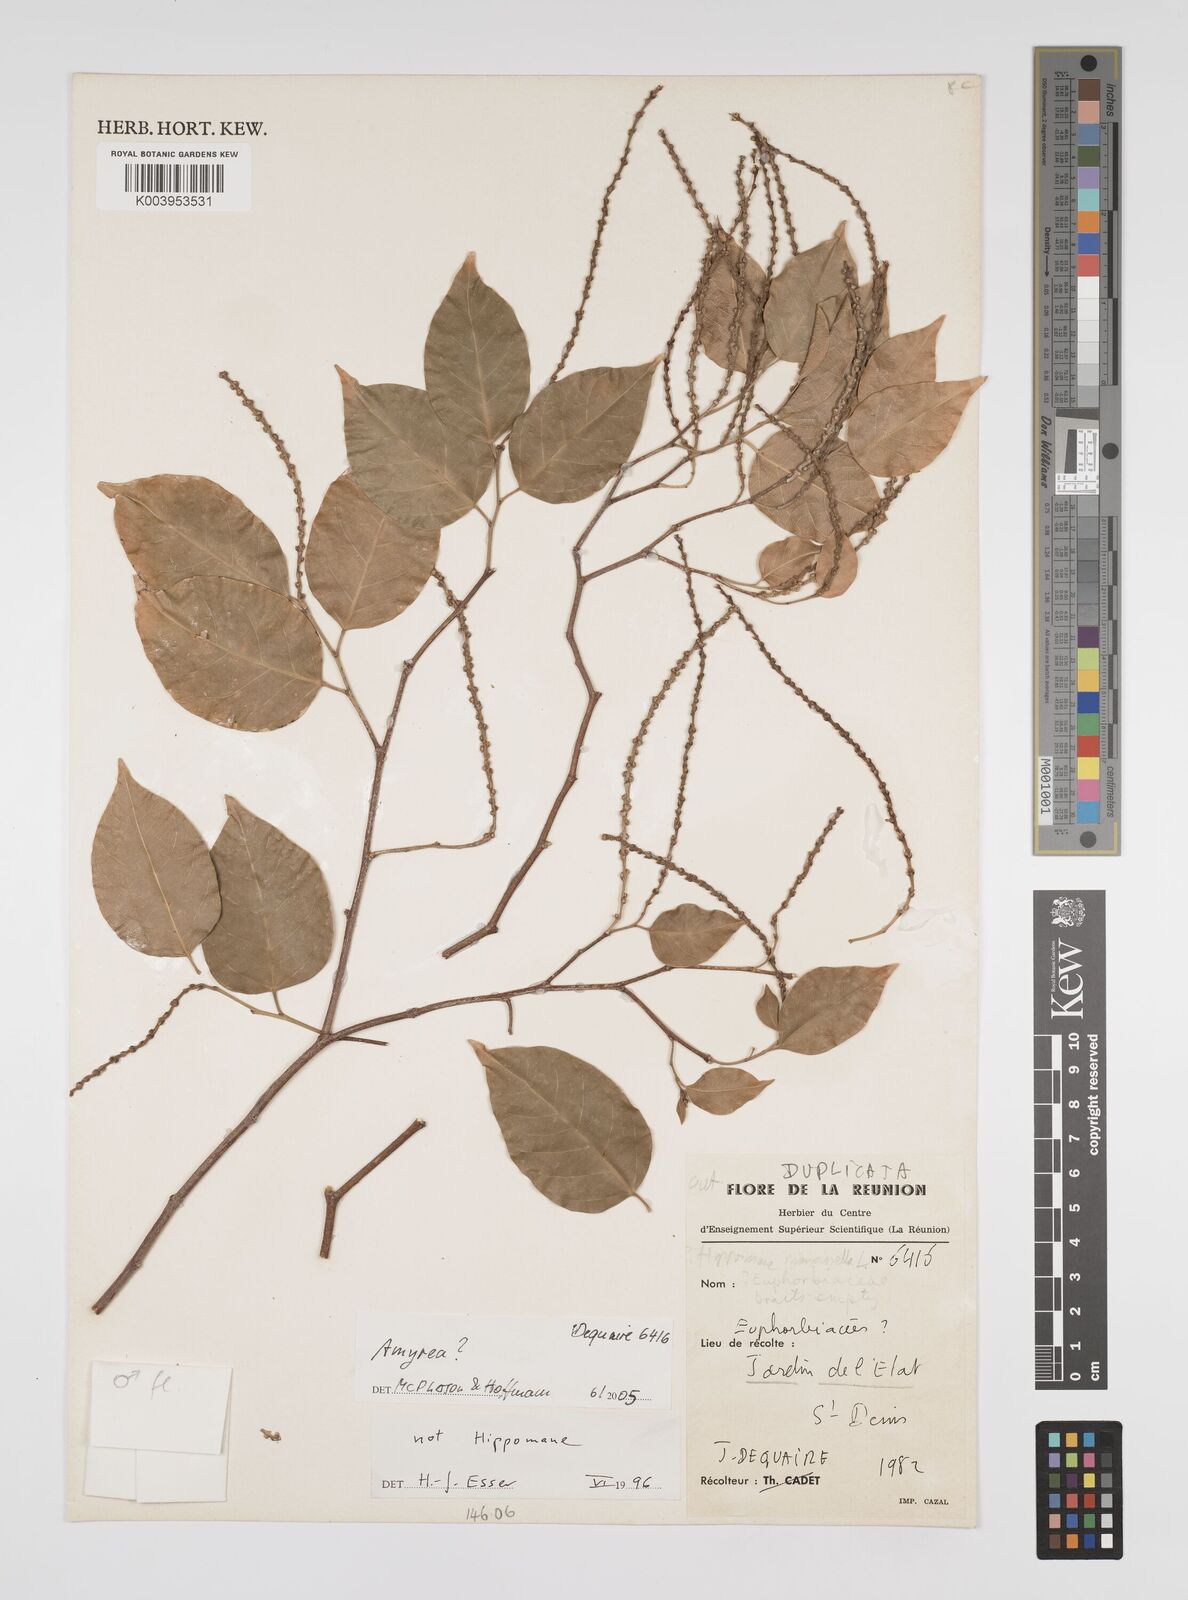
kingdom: Plantae
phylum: Tracheophyta
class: Magnoliopsida
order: Malpighiales
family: Euphorbiaceae
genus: Amyrea
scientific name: Amyrea
